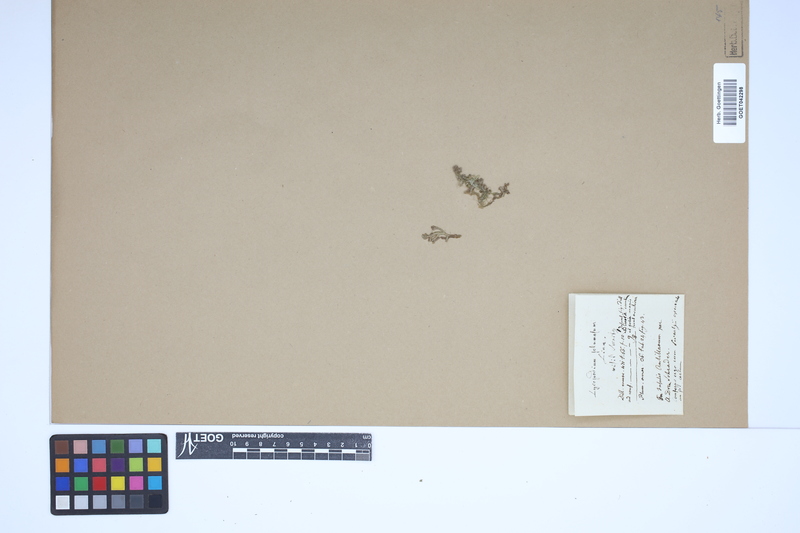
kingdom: Plantae
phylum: Tracheophyta
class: Lycopodiopsida
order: Selaginellales
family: Selaginellaceae
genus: Selaginella
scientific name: Selaginella flabellata
